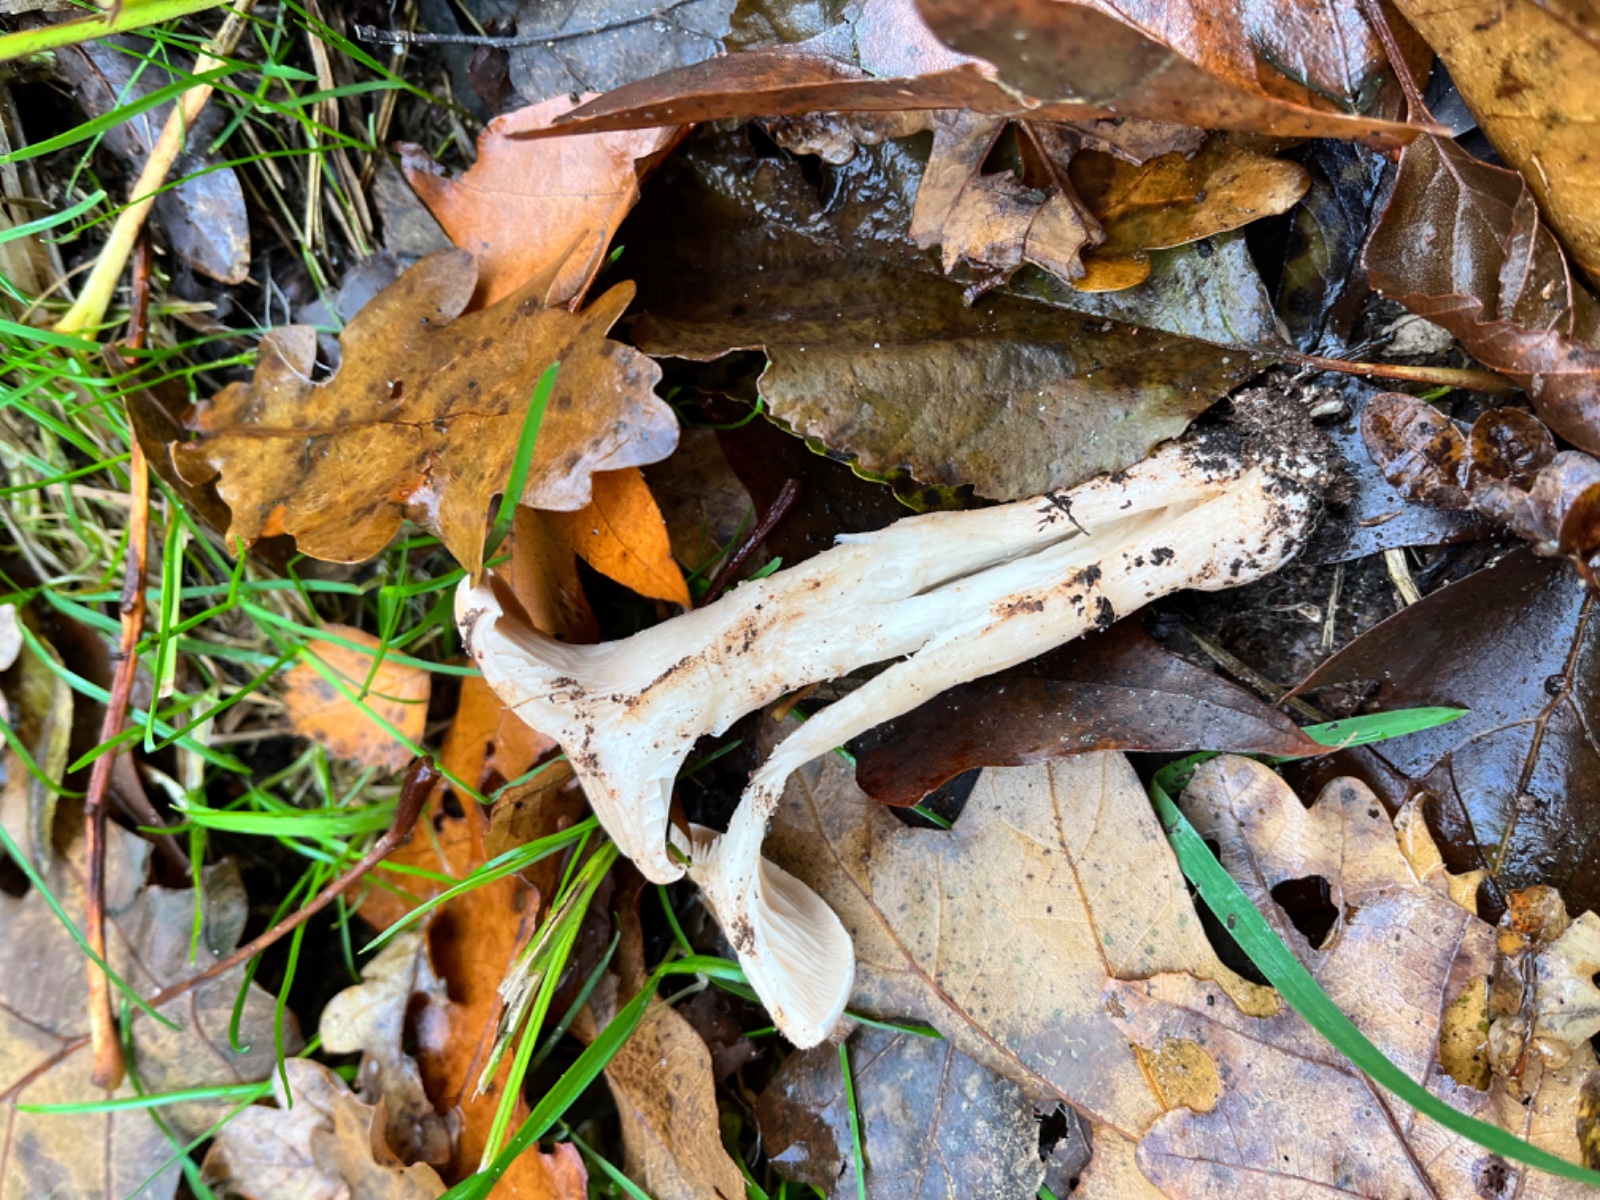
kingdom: Fungi
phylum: Basidiomycota
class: Agaricomycetes
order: Agaricales
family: Tricholomataceae
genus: Infundibulicybe
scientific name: Infundibulicybe geotropa
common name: stor tragthat
